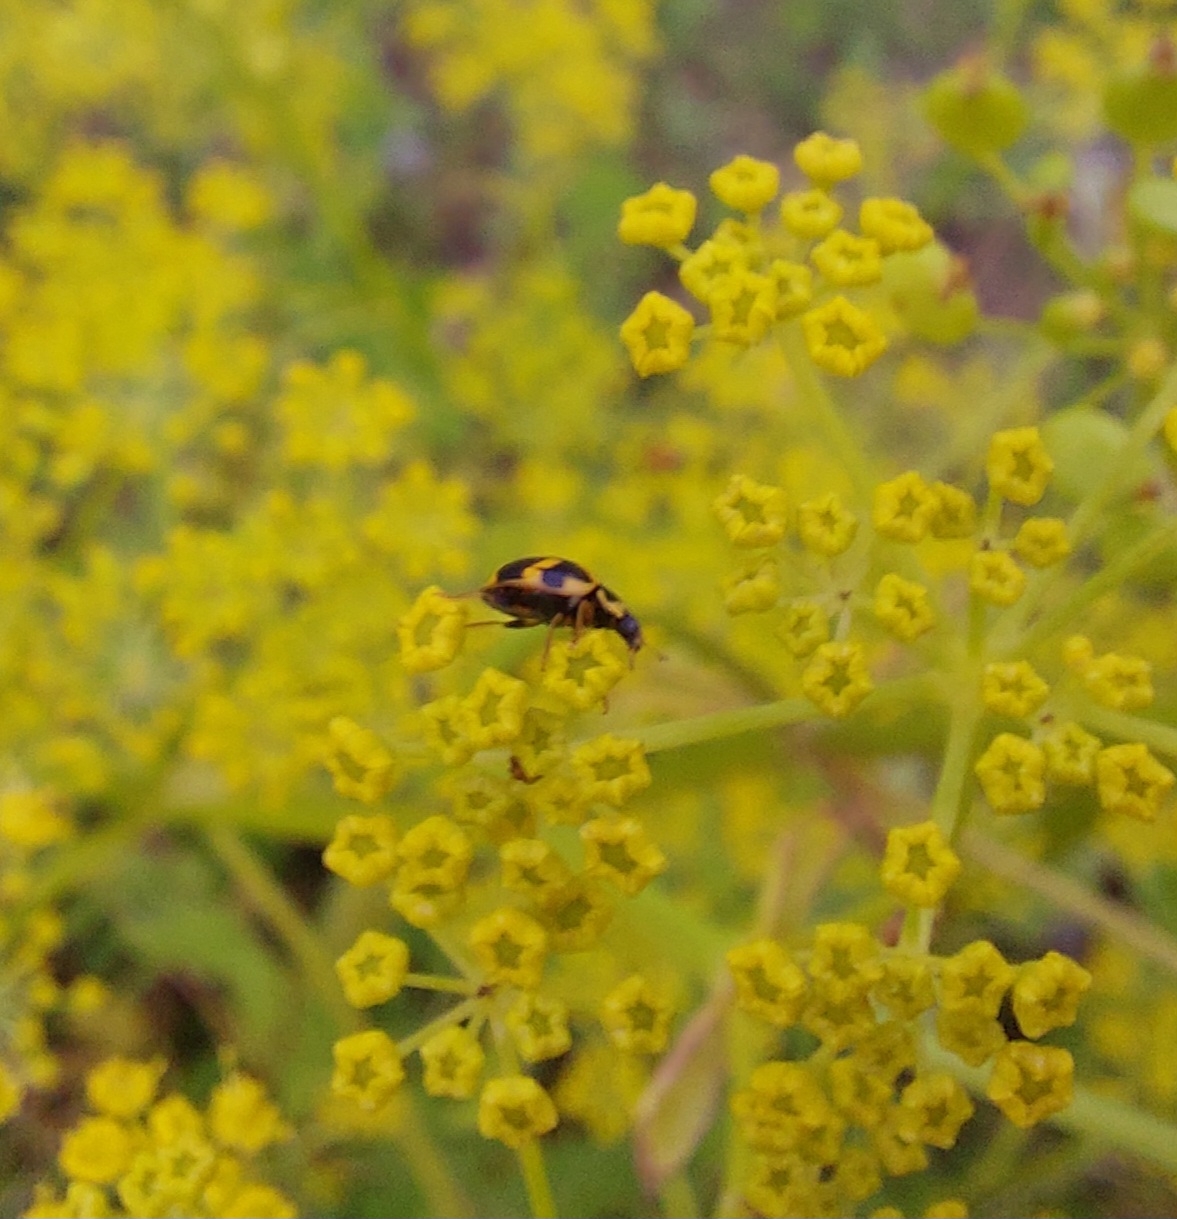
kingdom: Animalia
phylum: Arthropoda
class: Insecta
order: Coleoptera
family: Coccinellidae
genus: Propylaea
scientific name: Propylaea quatuordecimpunctata
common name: Skakbræt
